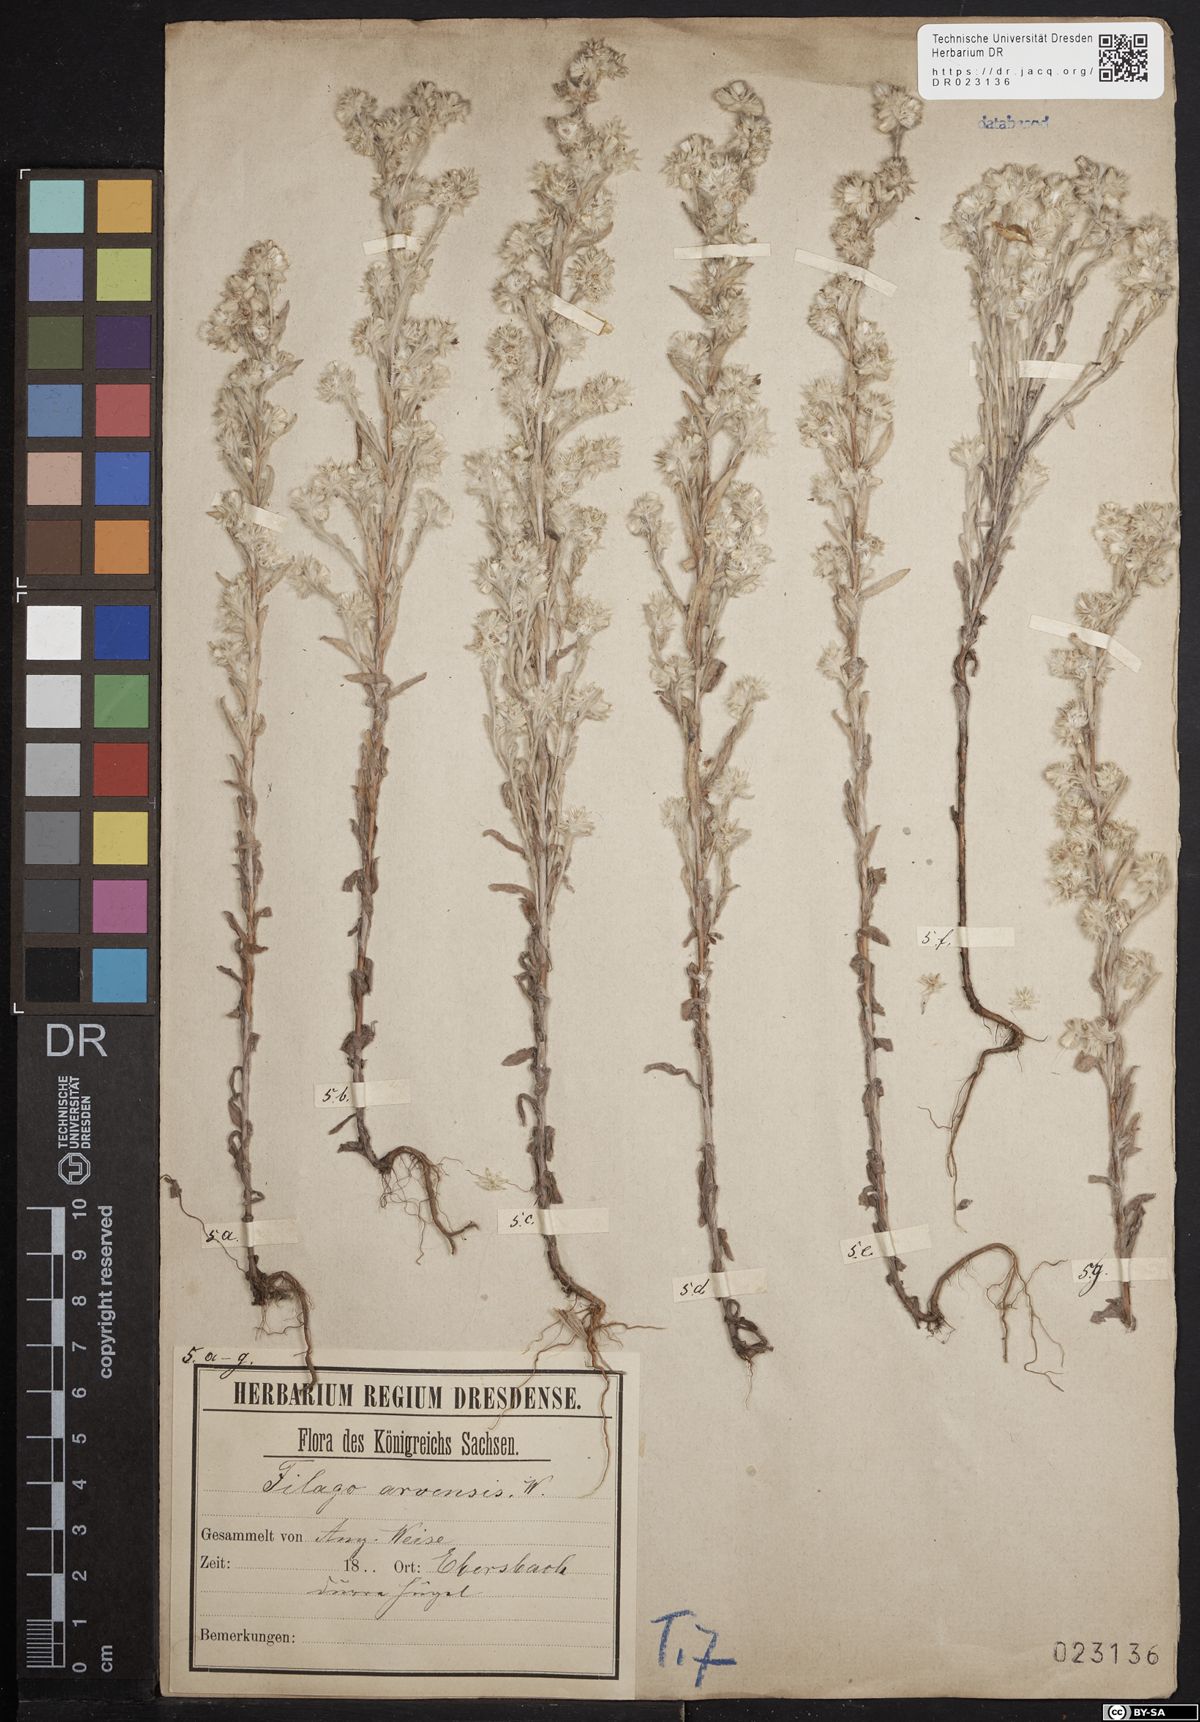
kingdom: Plantae
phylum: Tracheophyta
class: Magnoliopsida
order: Asterales
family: Asteraceae
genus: Filago
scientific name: Filago arvensis
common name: Field cudweed
